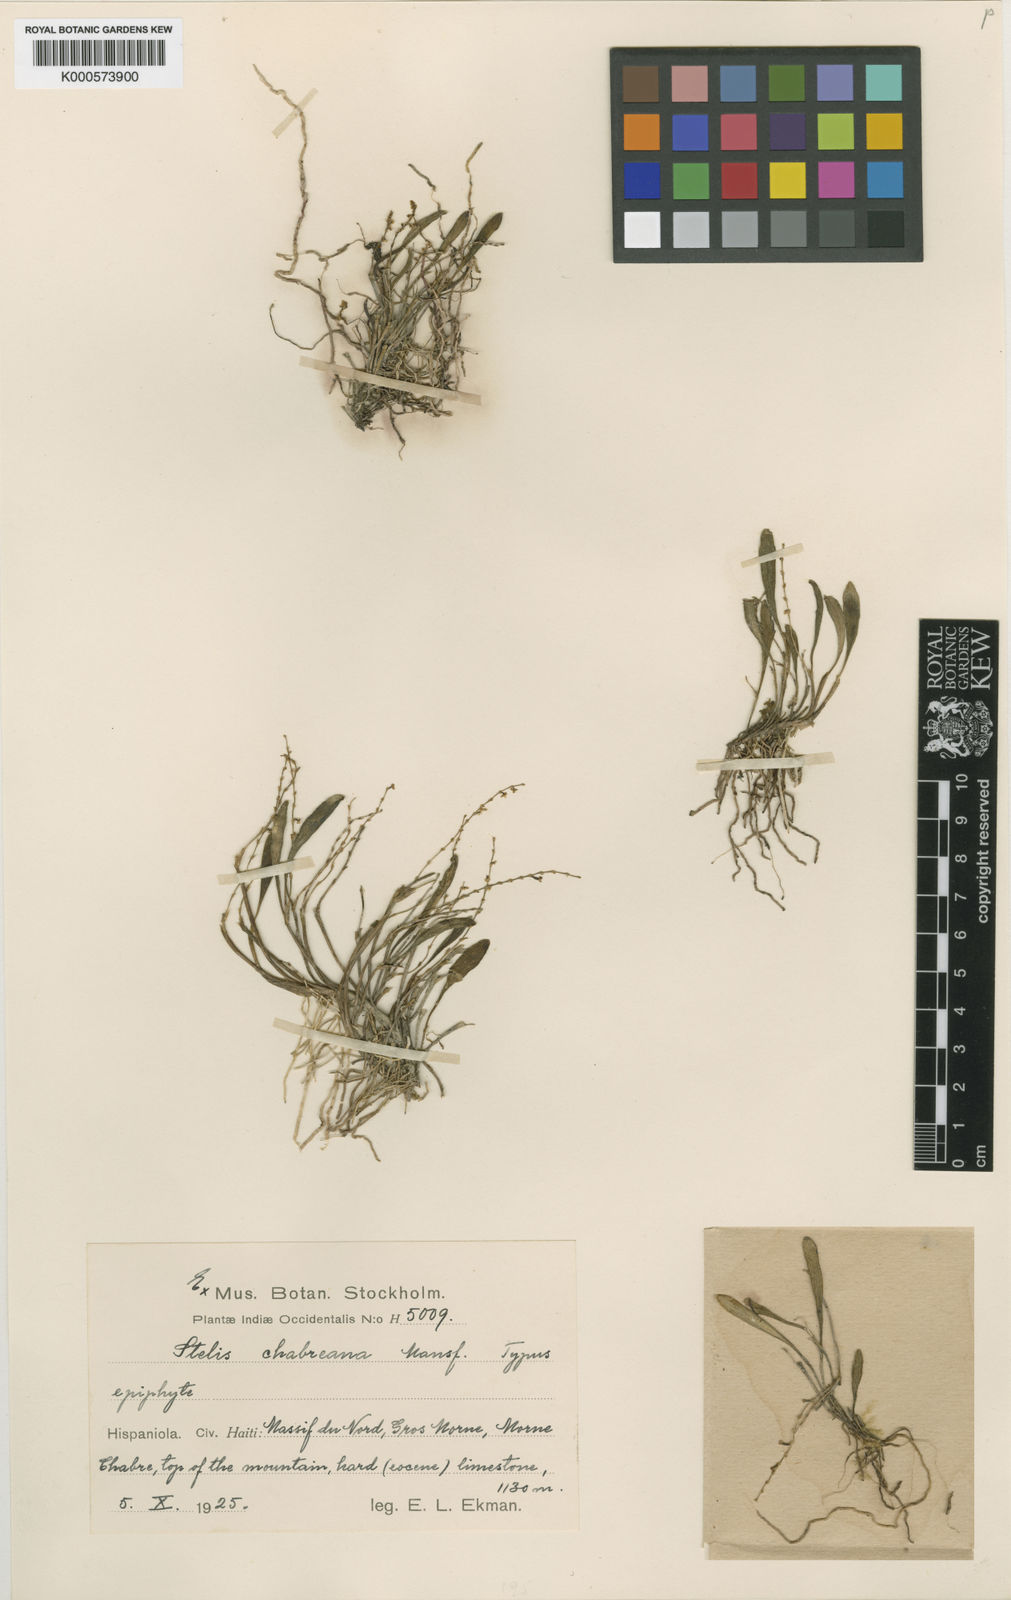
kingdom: Plantae
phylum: Tracheophyta
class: Liliopsida
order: Asparagales
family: Orchidaceae
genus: Stelis
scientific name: Stelis pusilla
